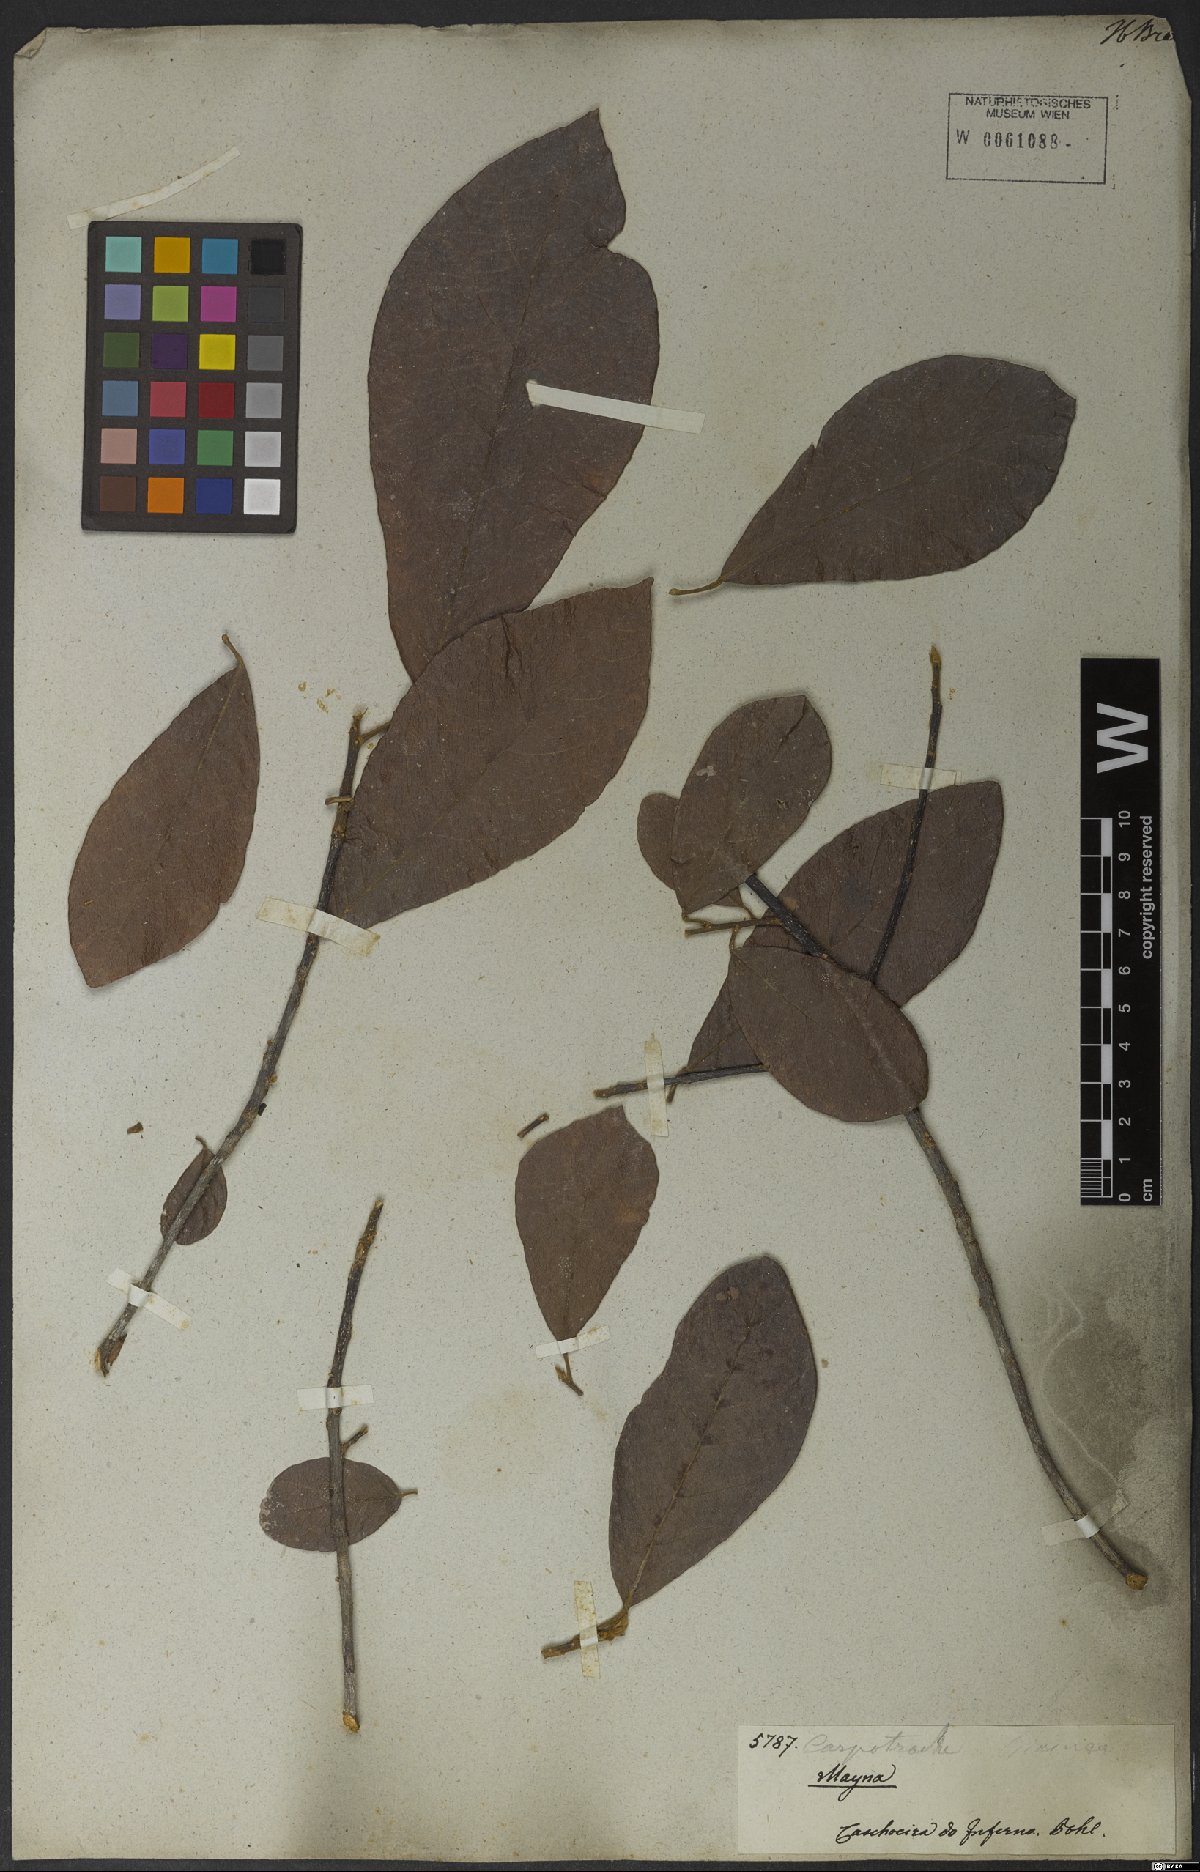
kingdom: Plantae
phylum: Tracheophyta
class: Magnoliopsida
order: Malpighiales
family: Achariaceae
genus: Carpotroche
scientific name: Carpotroche brasiliensis
